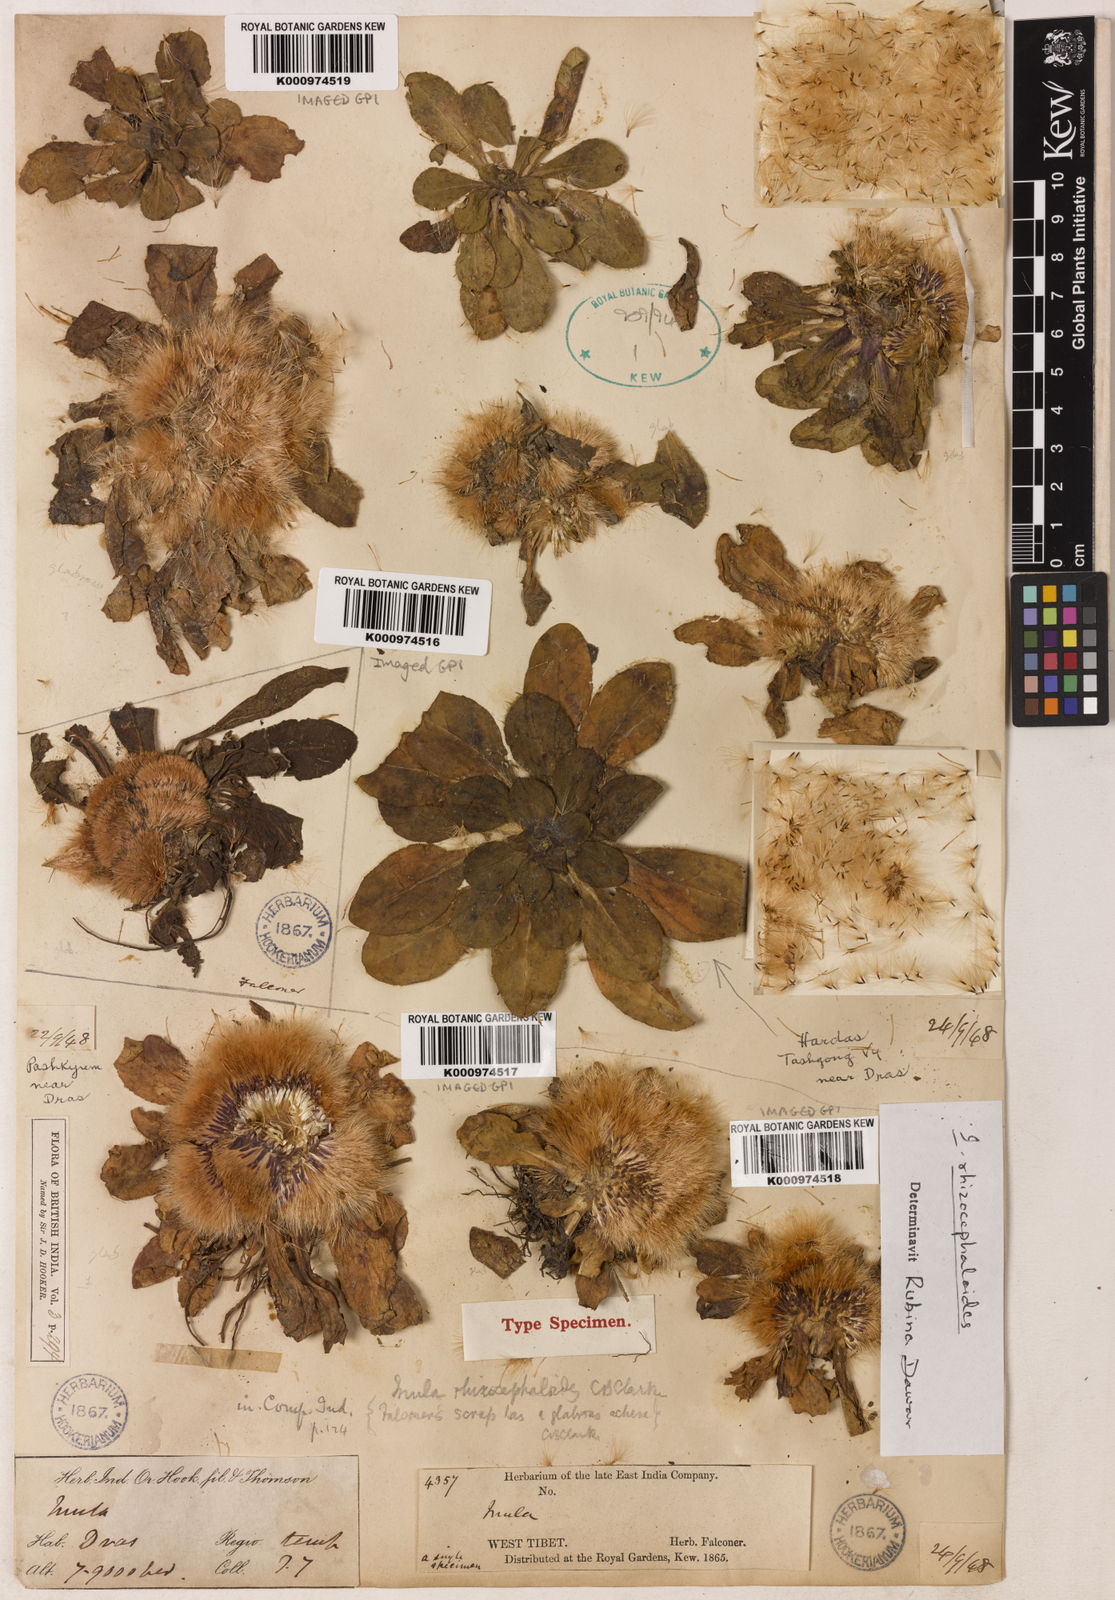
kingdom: Plantae
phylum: Tracheophyta
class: Magnoliopsida
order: Asterales
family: Asteraceae
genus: Inula
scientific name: Inula rhizocephaloides
